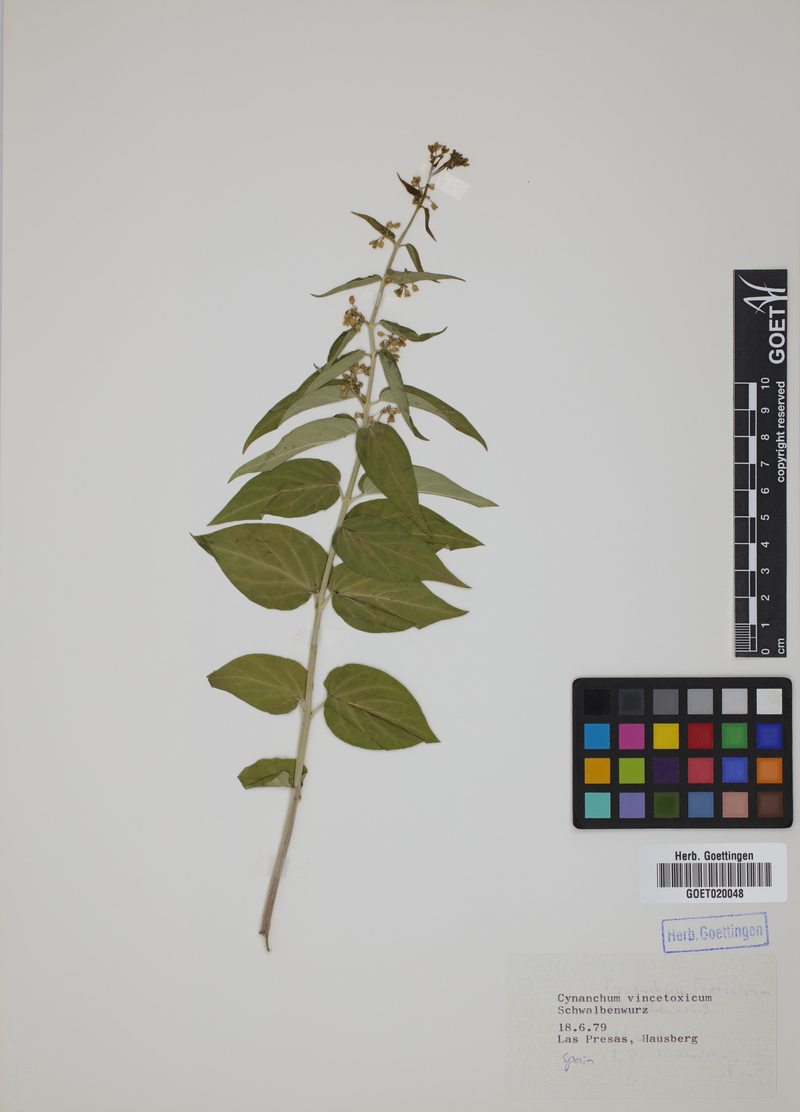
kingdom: Plantae
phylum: Tracheophyta
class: Magnoliopsida
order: Gentianales
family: Apocynaceae
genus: Vincetoxicum
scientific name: Vincetoxicum hirundinaria
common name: White swallowwort
